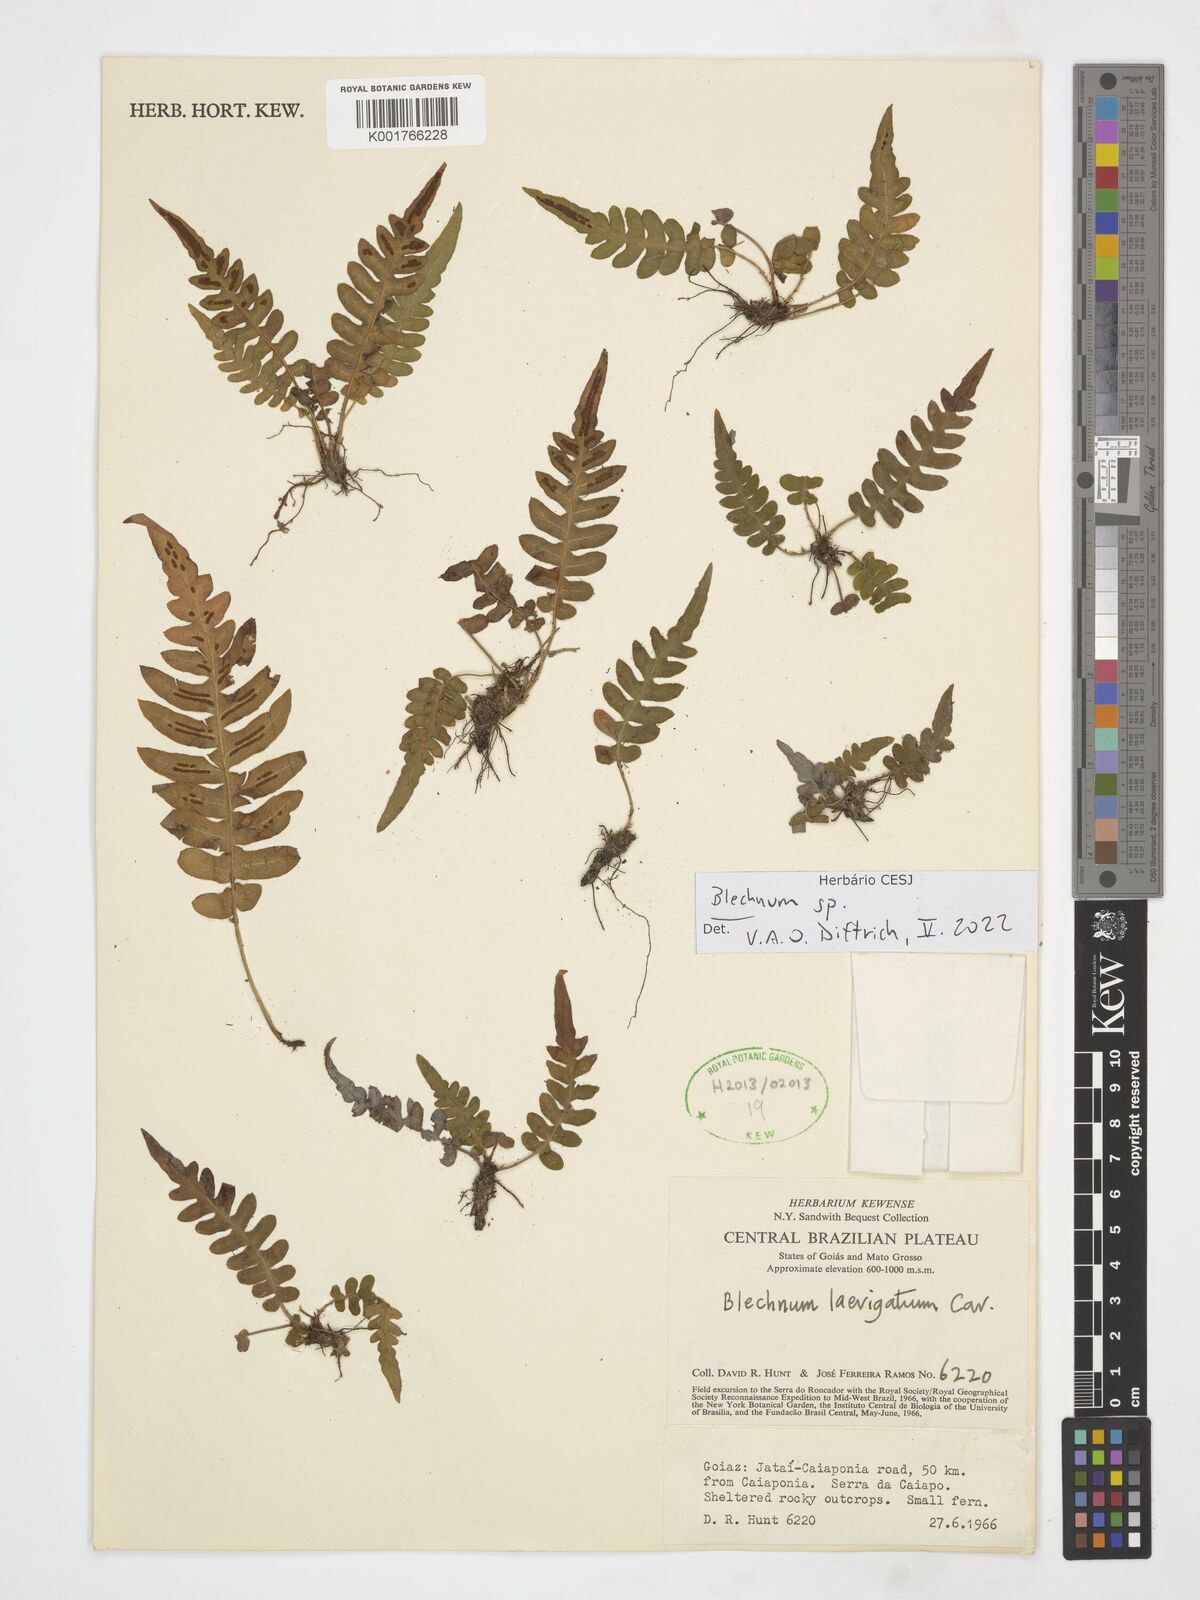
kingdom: Plantae
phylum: Tracheophyta
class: Polypodiopsida
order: Polypodiales
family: Blechnaceae
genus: Blechnum
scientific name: Blechnum
